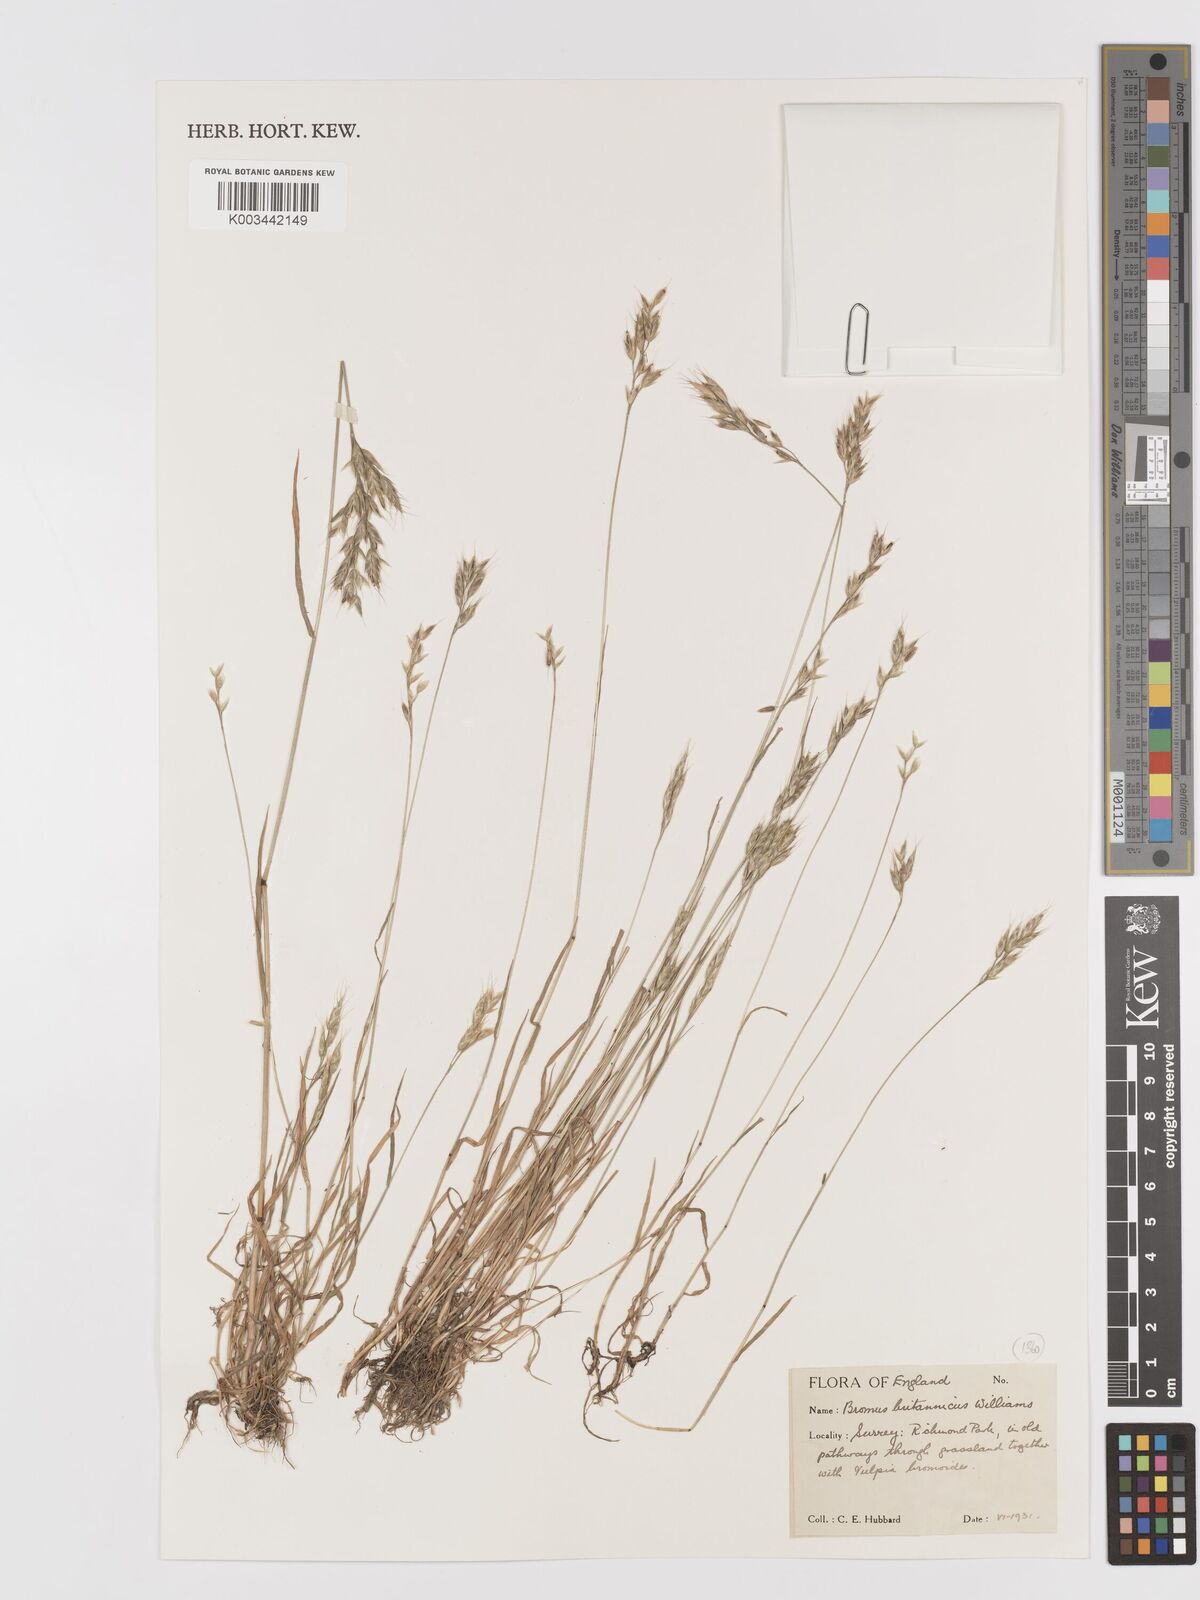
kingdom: Plantae
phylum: Tracheophyta
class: Liliopsida
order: Poales
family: Poaceae
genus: Bromus
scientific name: Bromus lepidus
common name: Slender soft-brome
